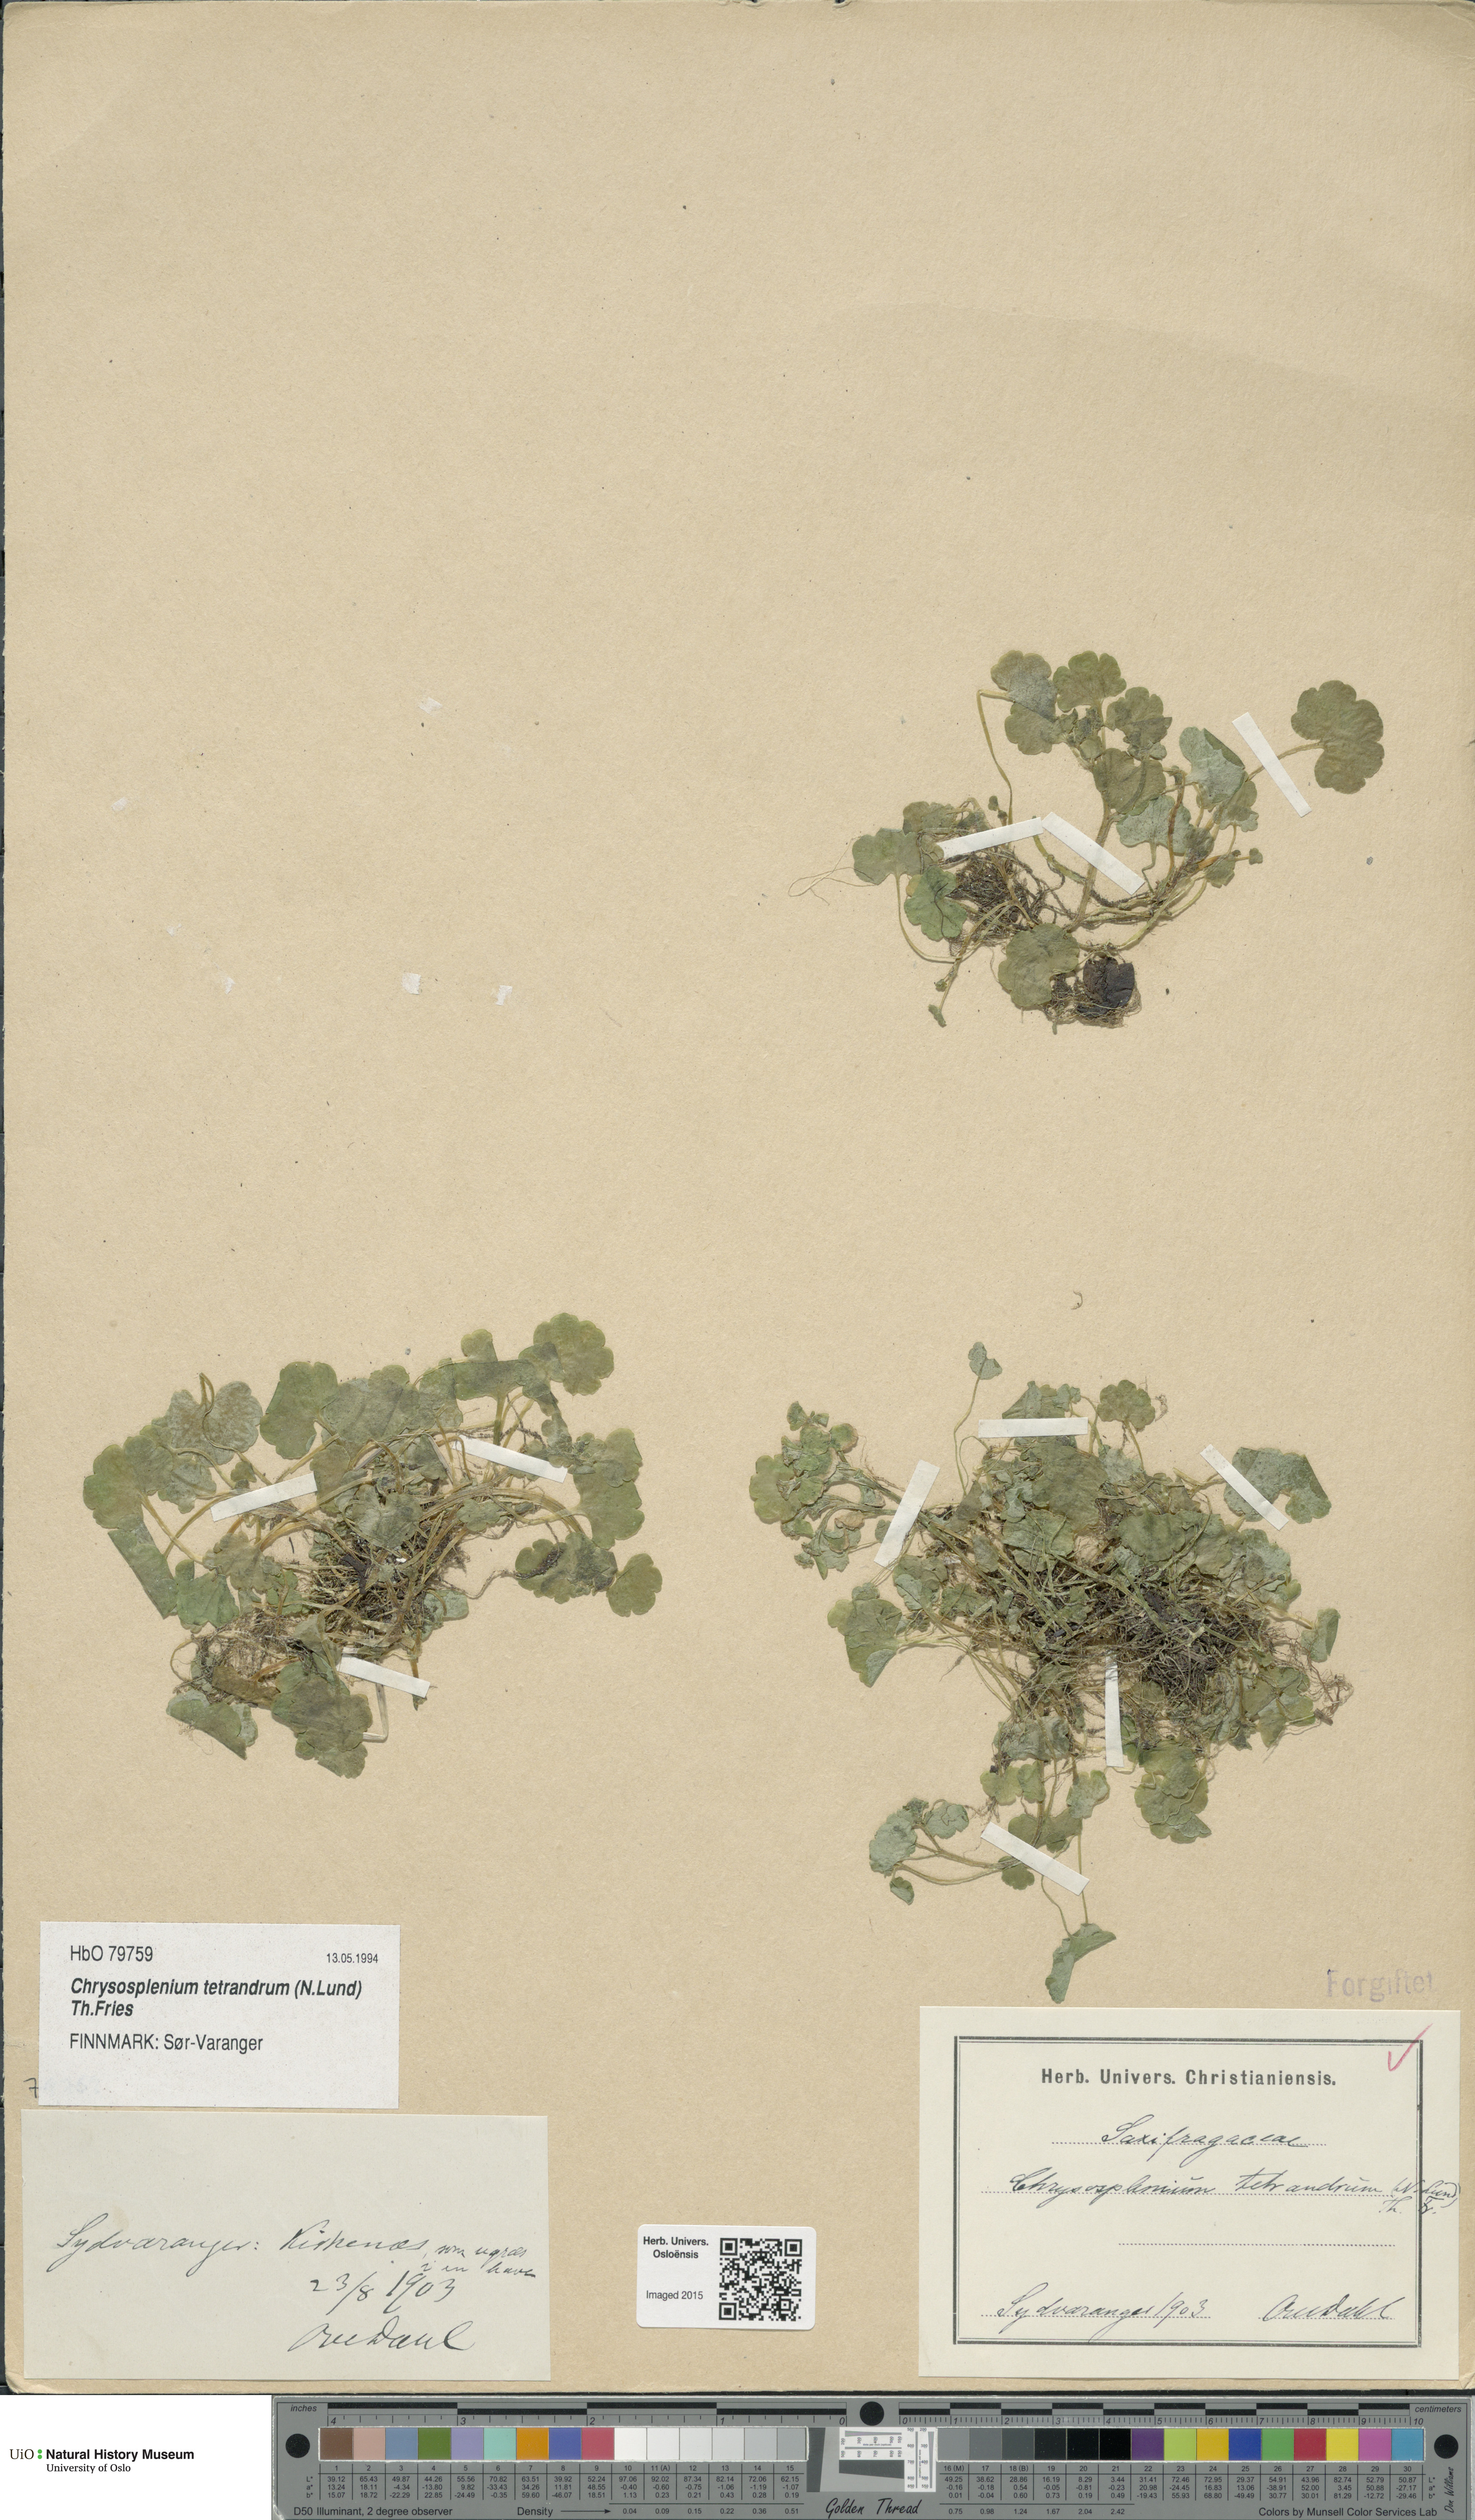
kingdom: Plantae
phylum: Tracheophyta
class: Magnoliopsida
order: Saxifragales
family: Saxifragaceae
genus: Chrysosplenium
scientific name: Chrysosplenium tetrandrum
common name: Green saxifrage
